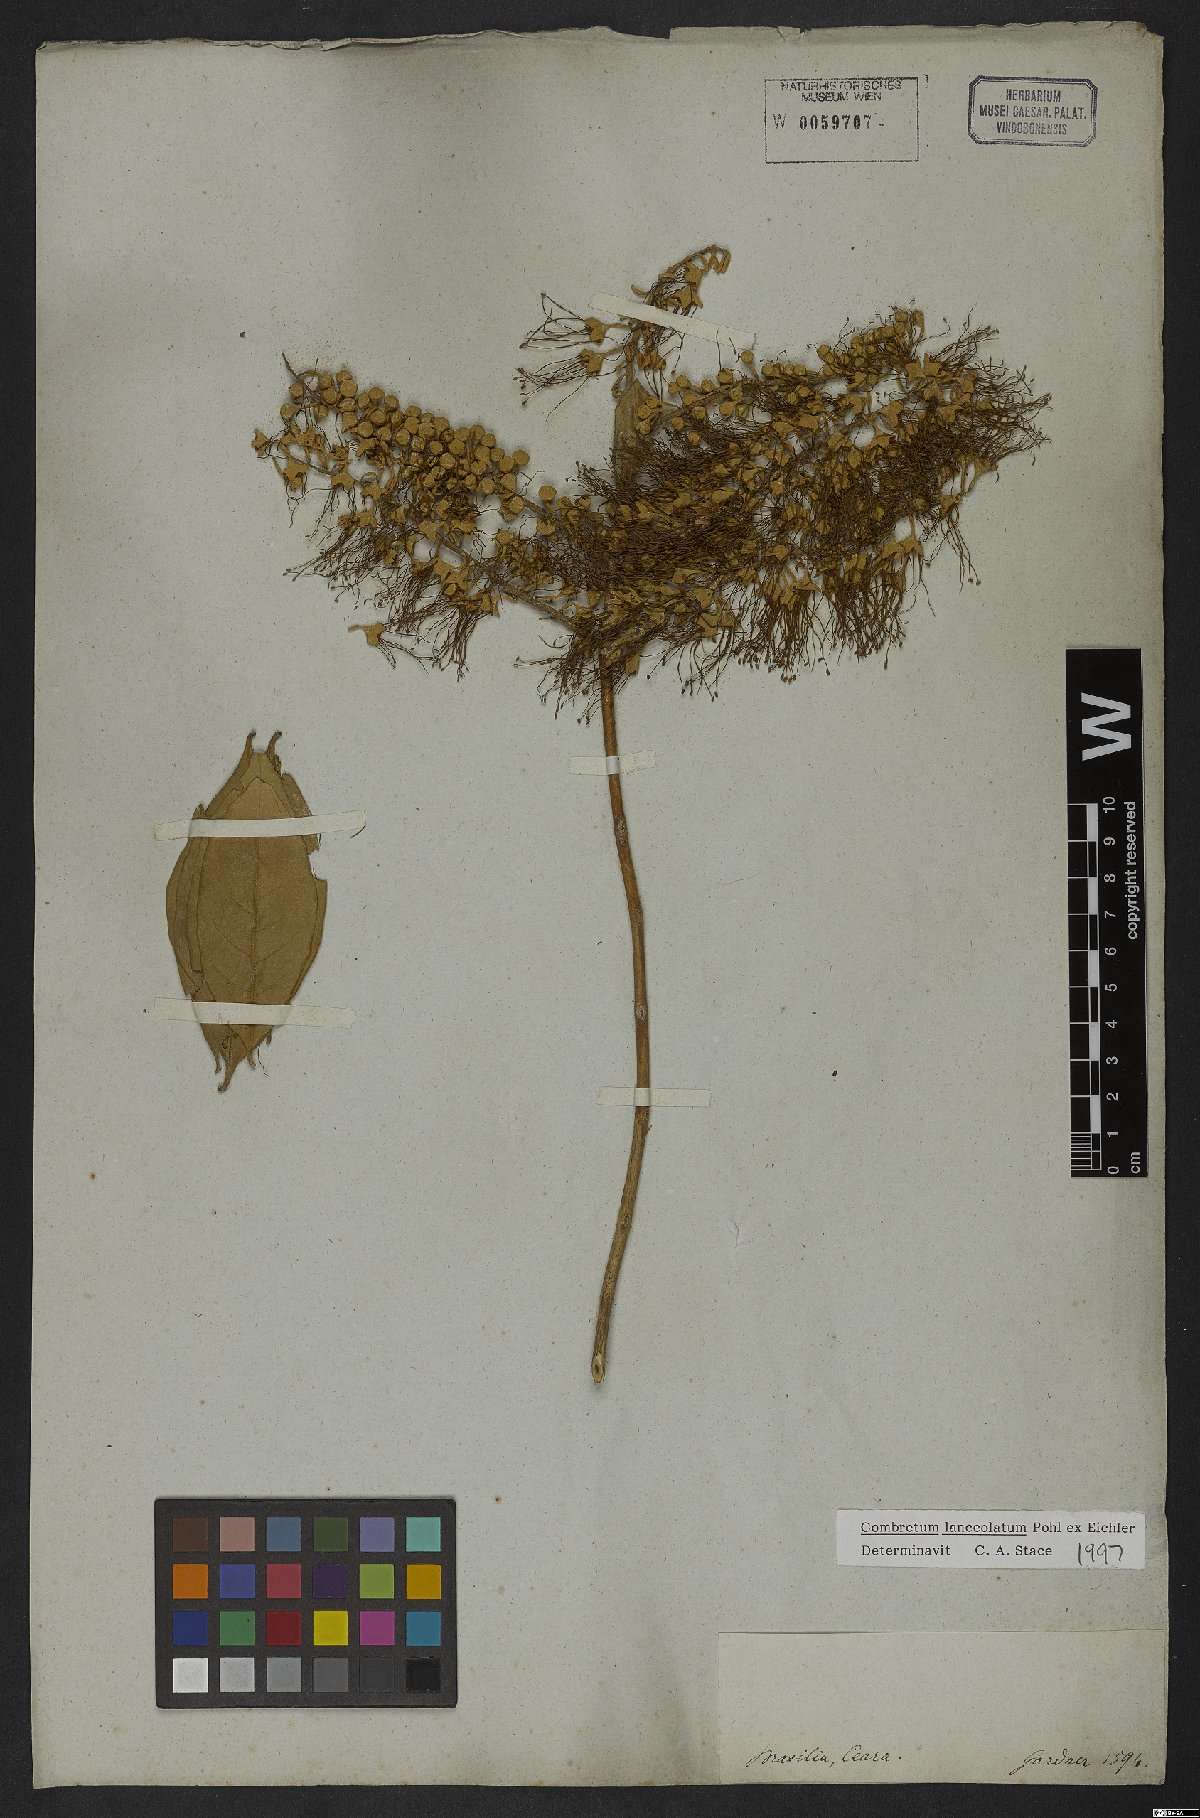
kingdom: Plantae
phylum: Tracheophyta
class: Magnoliopsida
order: Myrtales
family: Combretaceae
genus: Combretum
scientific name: Combretum lanceolatum
